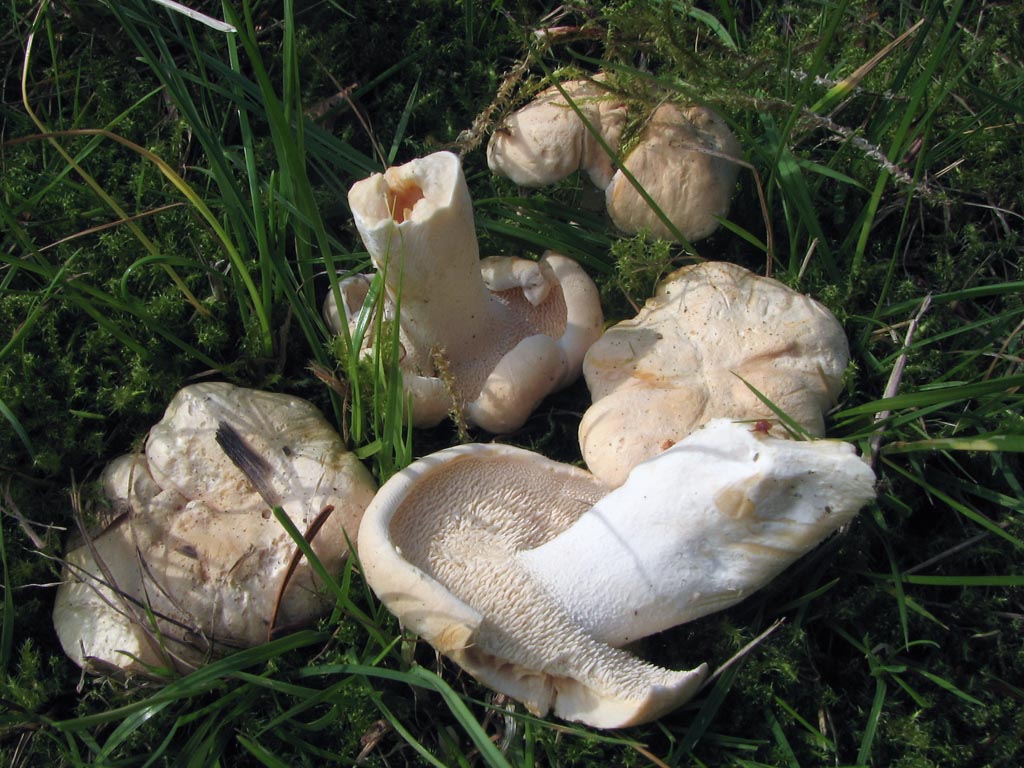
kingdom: Fungi
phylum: Basidiomycota
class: Agaricomycetes
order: Cantharellales
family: Hydnaceae
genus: Hydnum
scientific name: Hydnum vesterholtii
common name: Vesterholts pigsvamp
